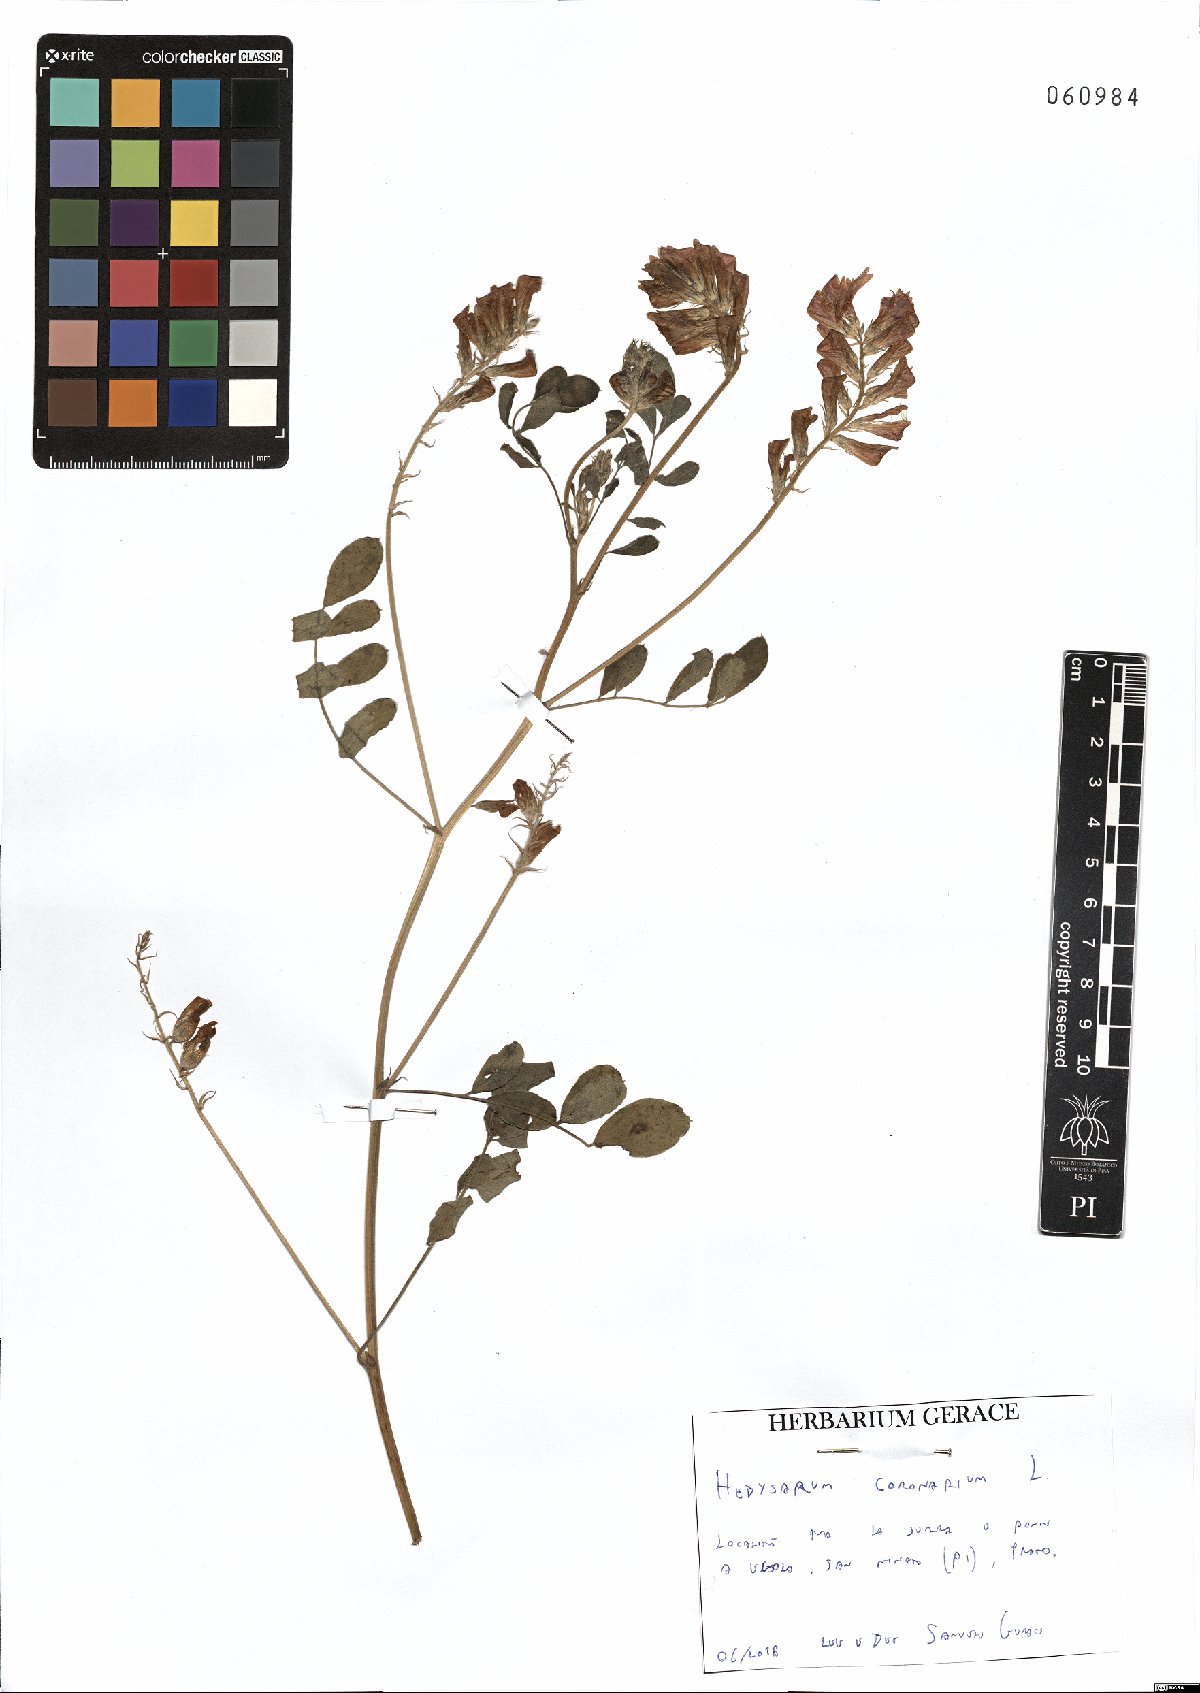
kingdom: Plantae
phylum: Tracheophyta
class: Magnoliopsida
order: Fabales
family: Fabaceae
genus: Sulla
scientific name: Sulla coronaria
